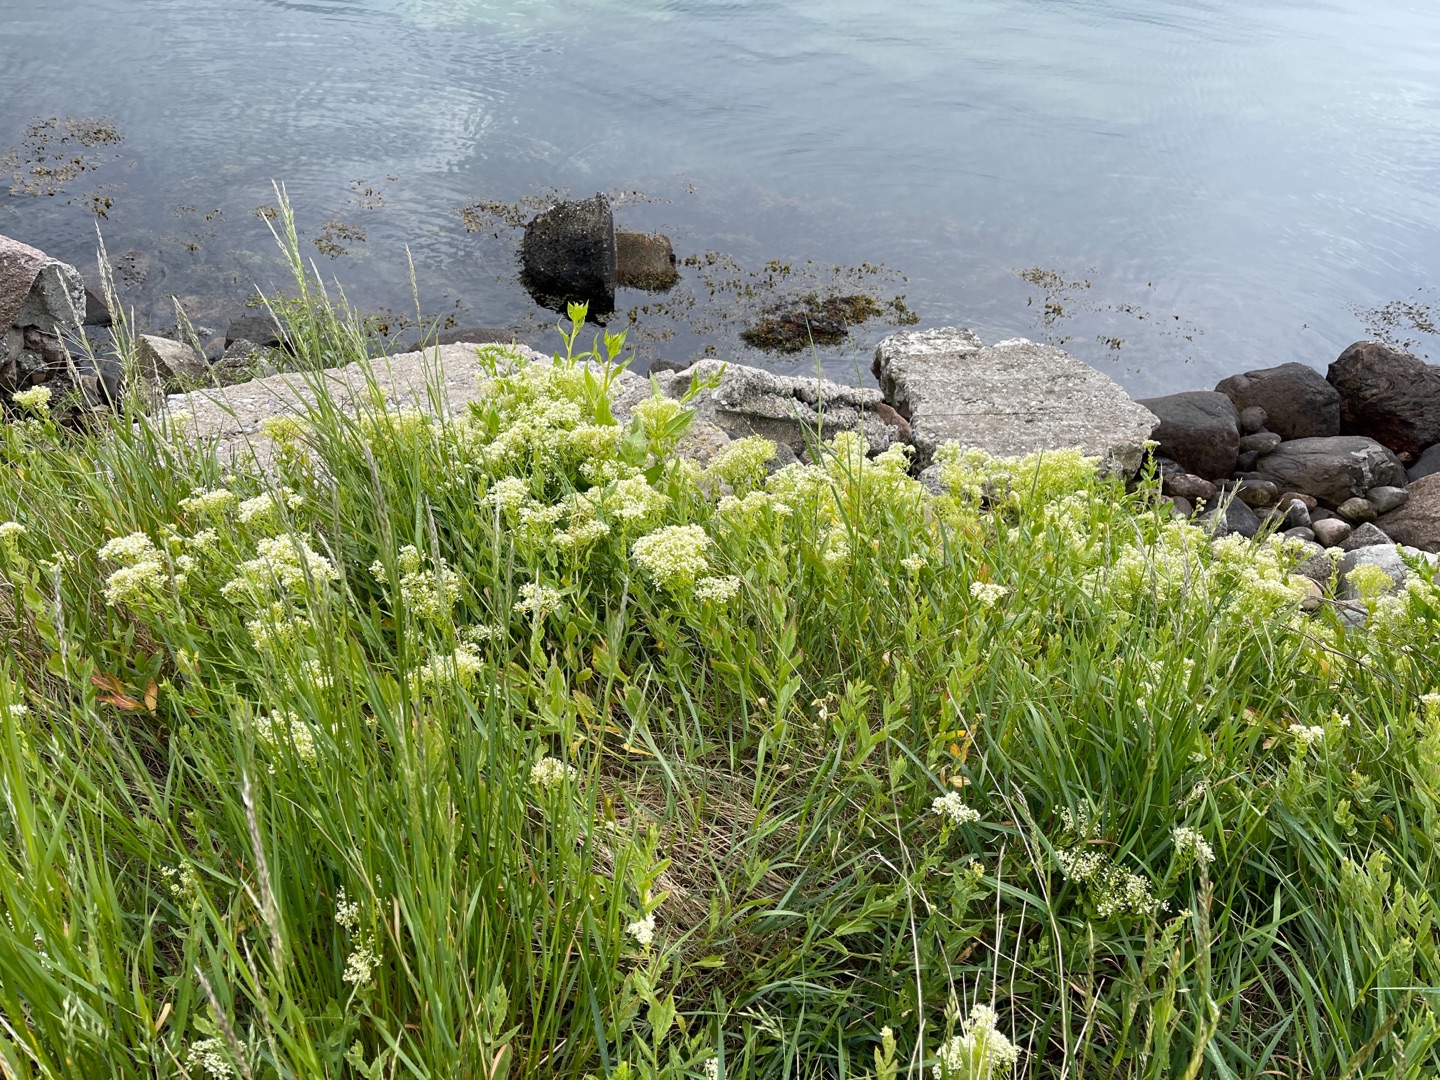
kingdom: Plantae
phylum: Tracheophyta
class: Magnoliopsida
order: Brassicales
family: Brassicaceae
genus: Lepidium
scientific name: Lepidium draba
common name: Hjerte-karse
